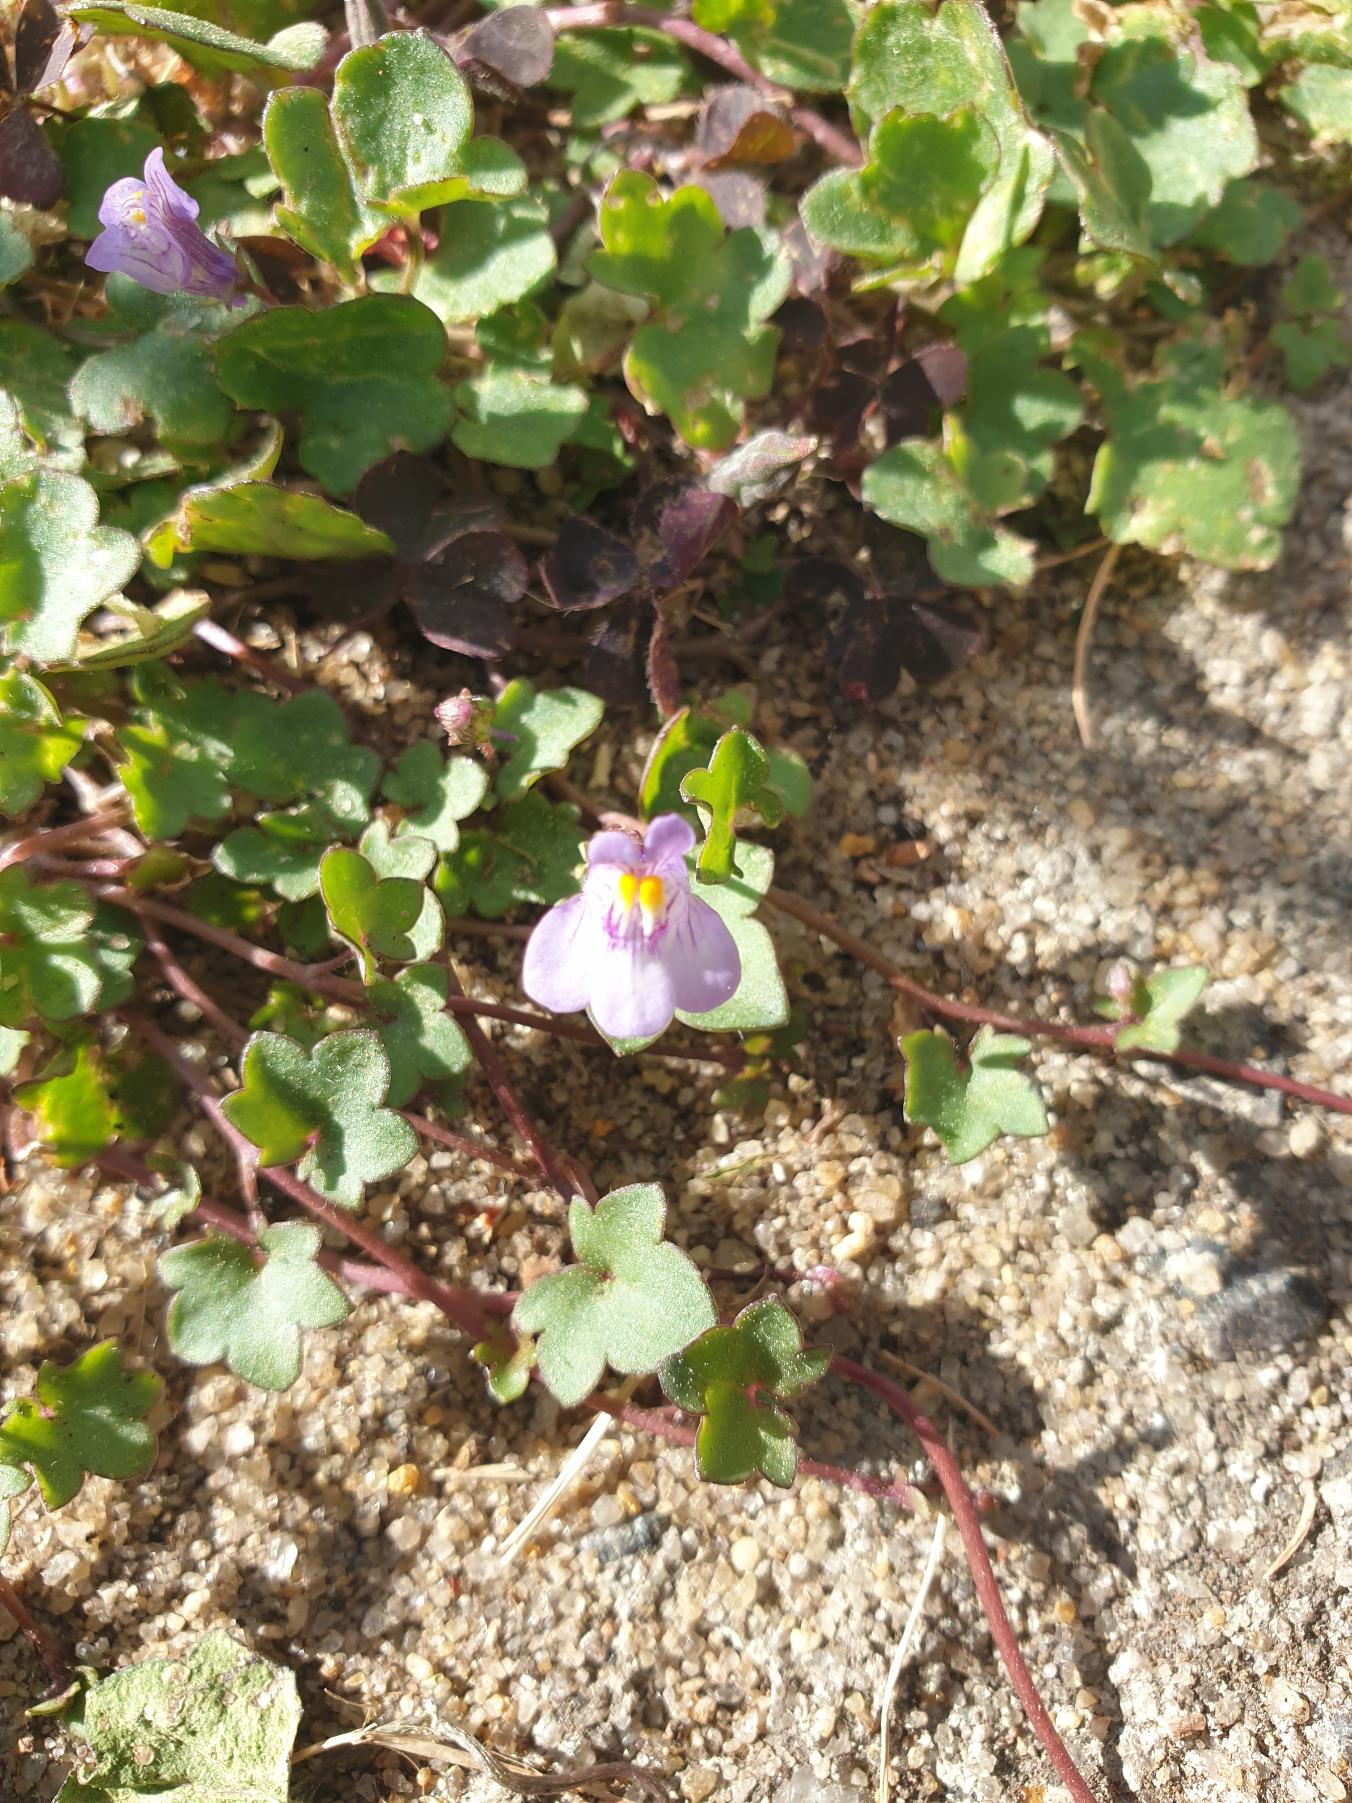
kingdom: Plantae
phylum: Tracheophyta
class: Magnoliopsida
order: Lamiales
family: Plantaginaceae
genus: Cymbalaria
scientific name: Cymbalaria muralis
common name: Vedbend-torskemund
